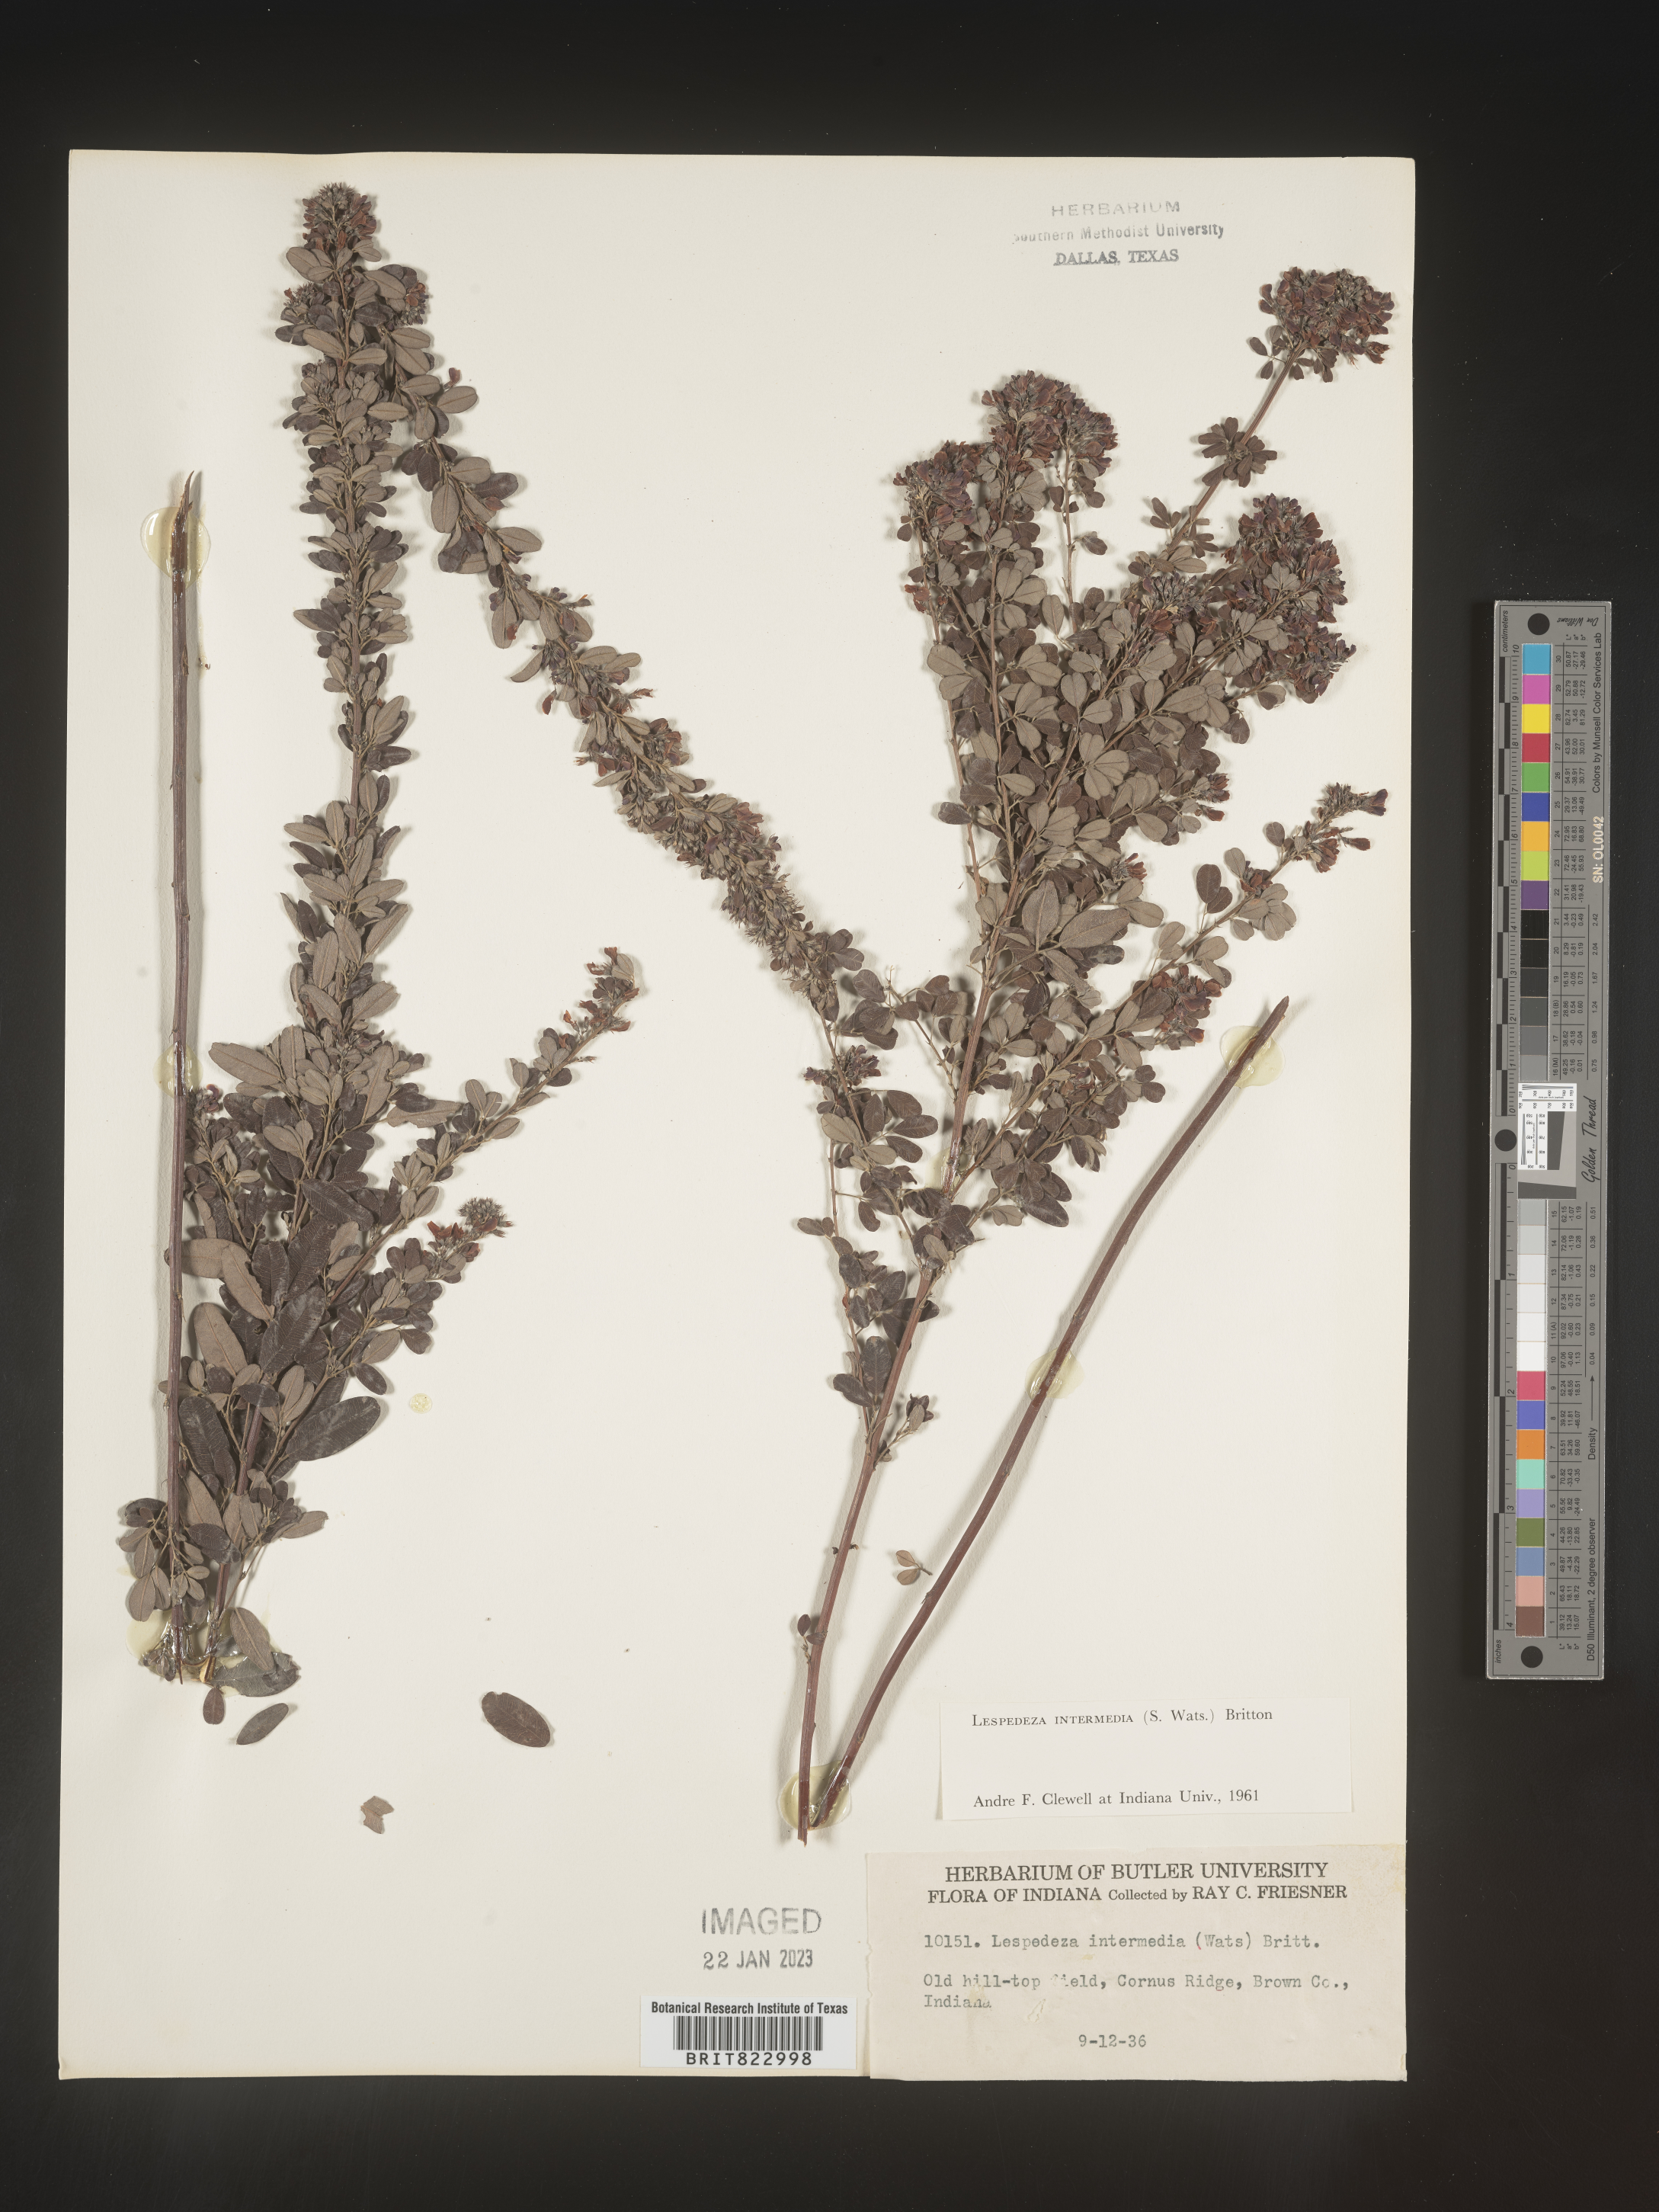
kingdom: Plantae
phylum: Tracheophyta
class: Magnoliopsida
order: Fabales
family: Fabaceae
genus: Lespedeza
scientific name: Lespedeza
